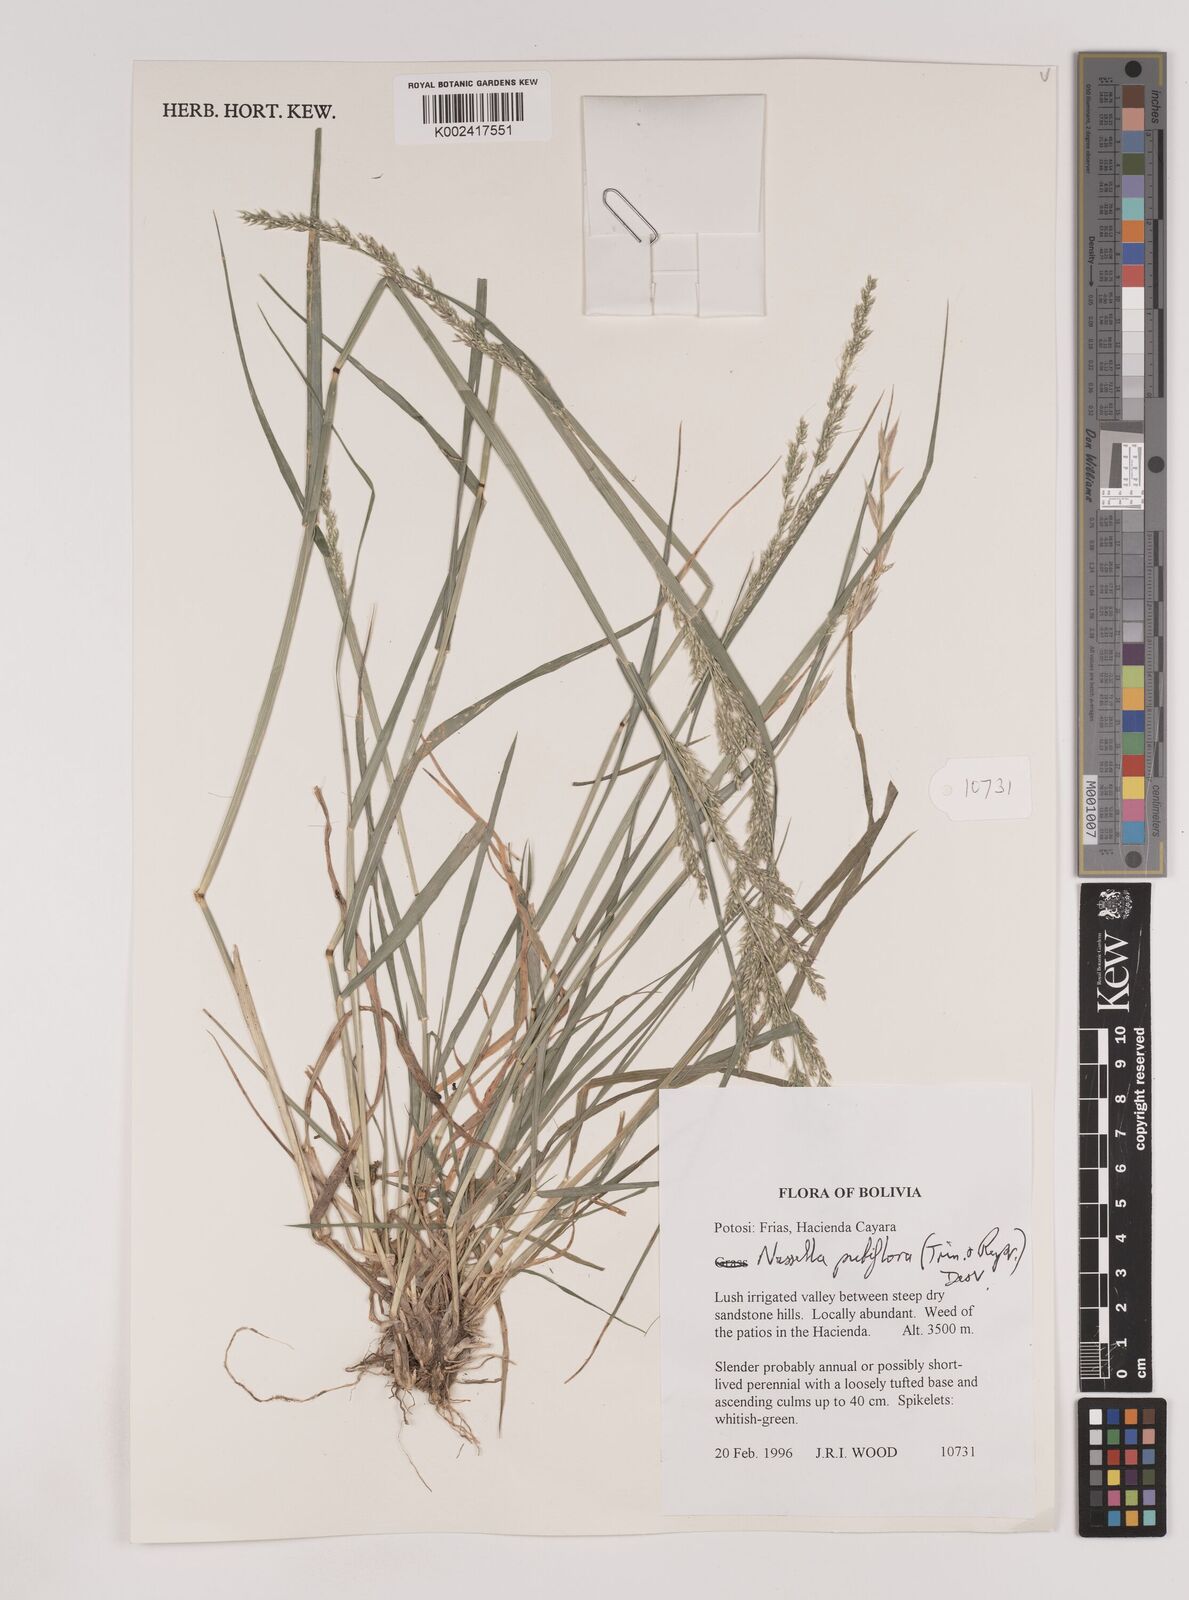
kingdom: Plantae
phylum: Tracheophyta
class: Liliopsida
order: Poales
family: Poaceae
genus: Nassella
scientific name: Nassella pubiflora
